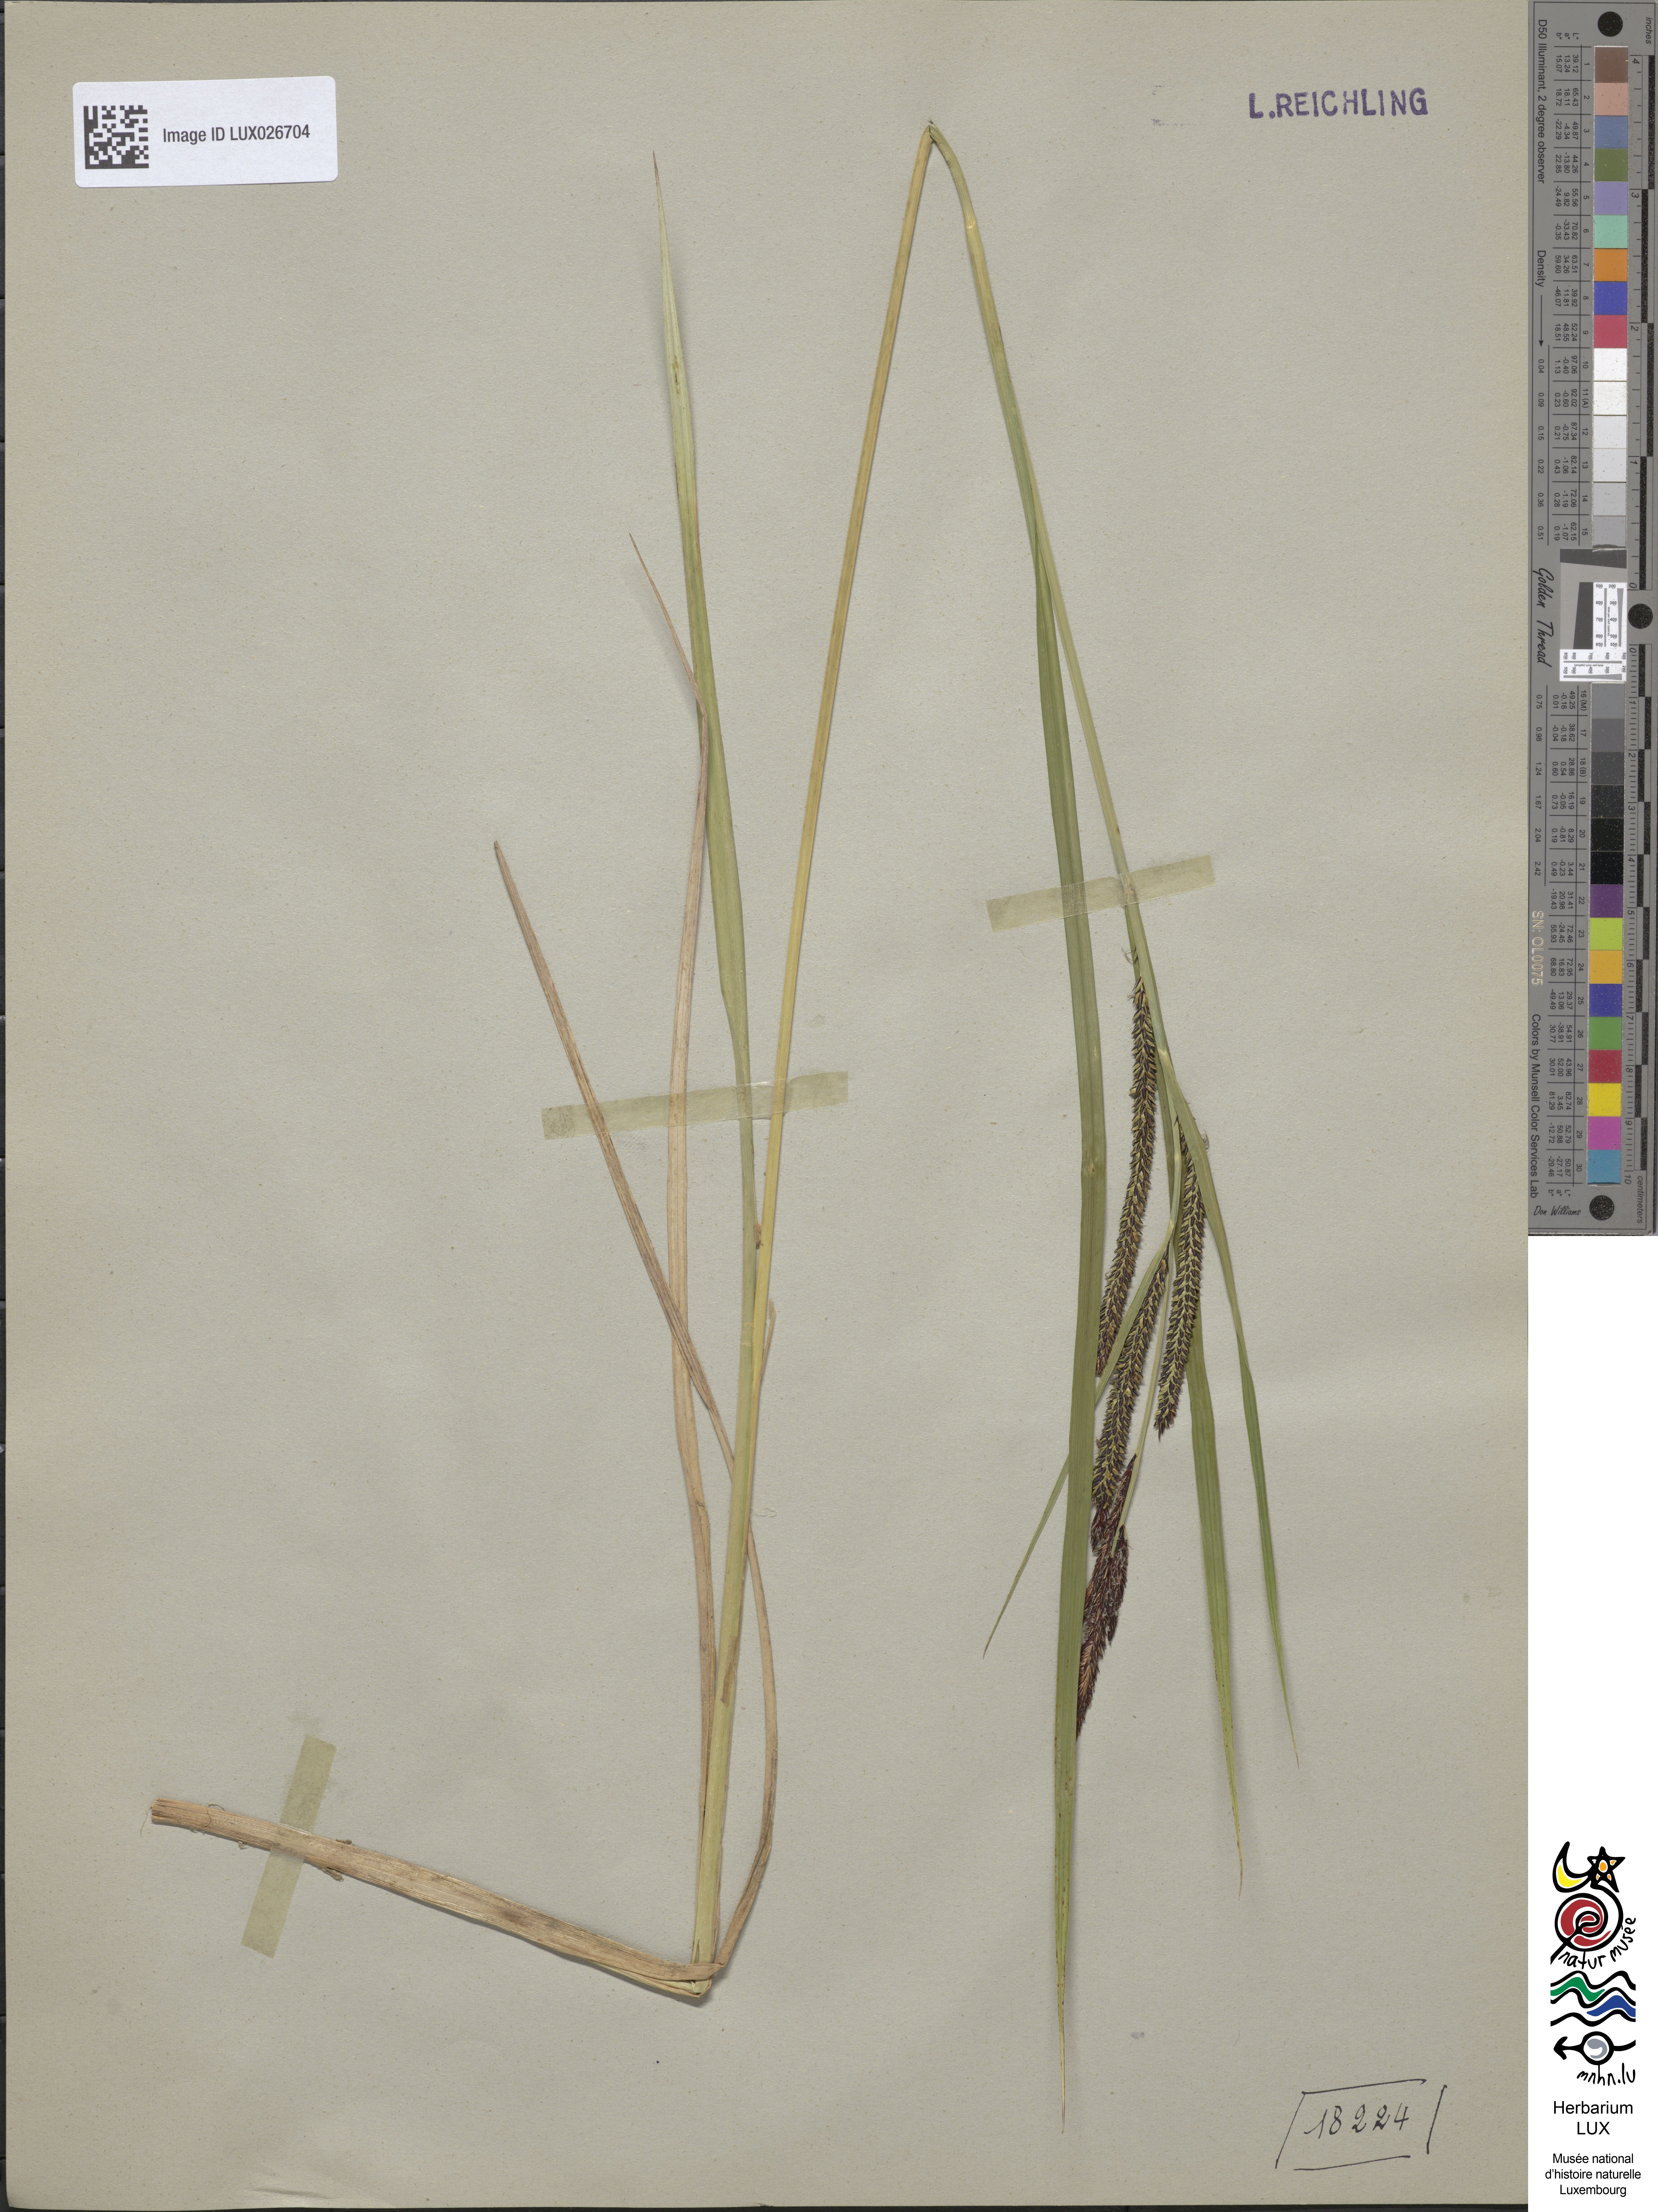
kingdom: Plantae
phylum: Tracheophyta
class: Liliopsida
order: Poales
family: Cyperaceae
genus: Carex
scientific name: Carex acuta
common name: Slender tufted-sedge
